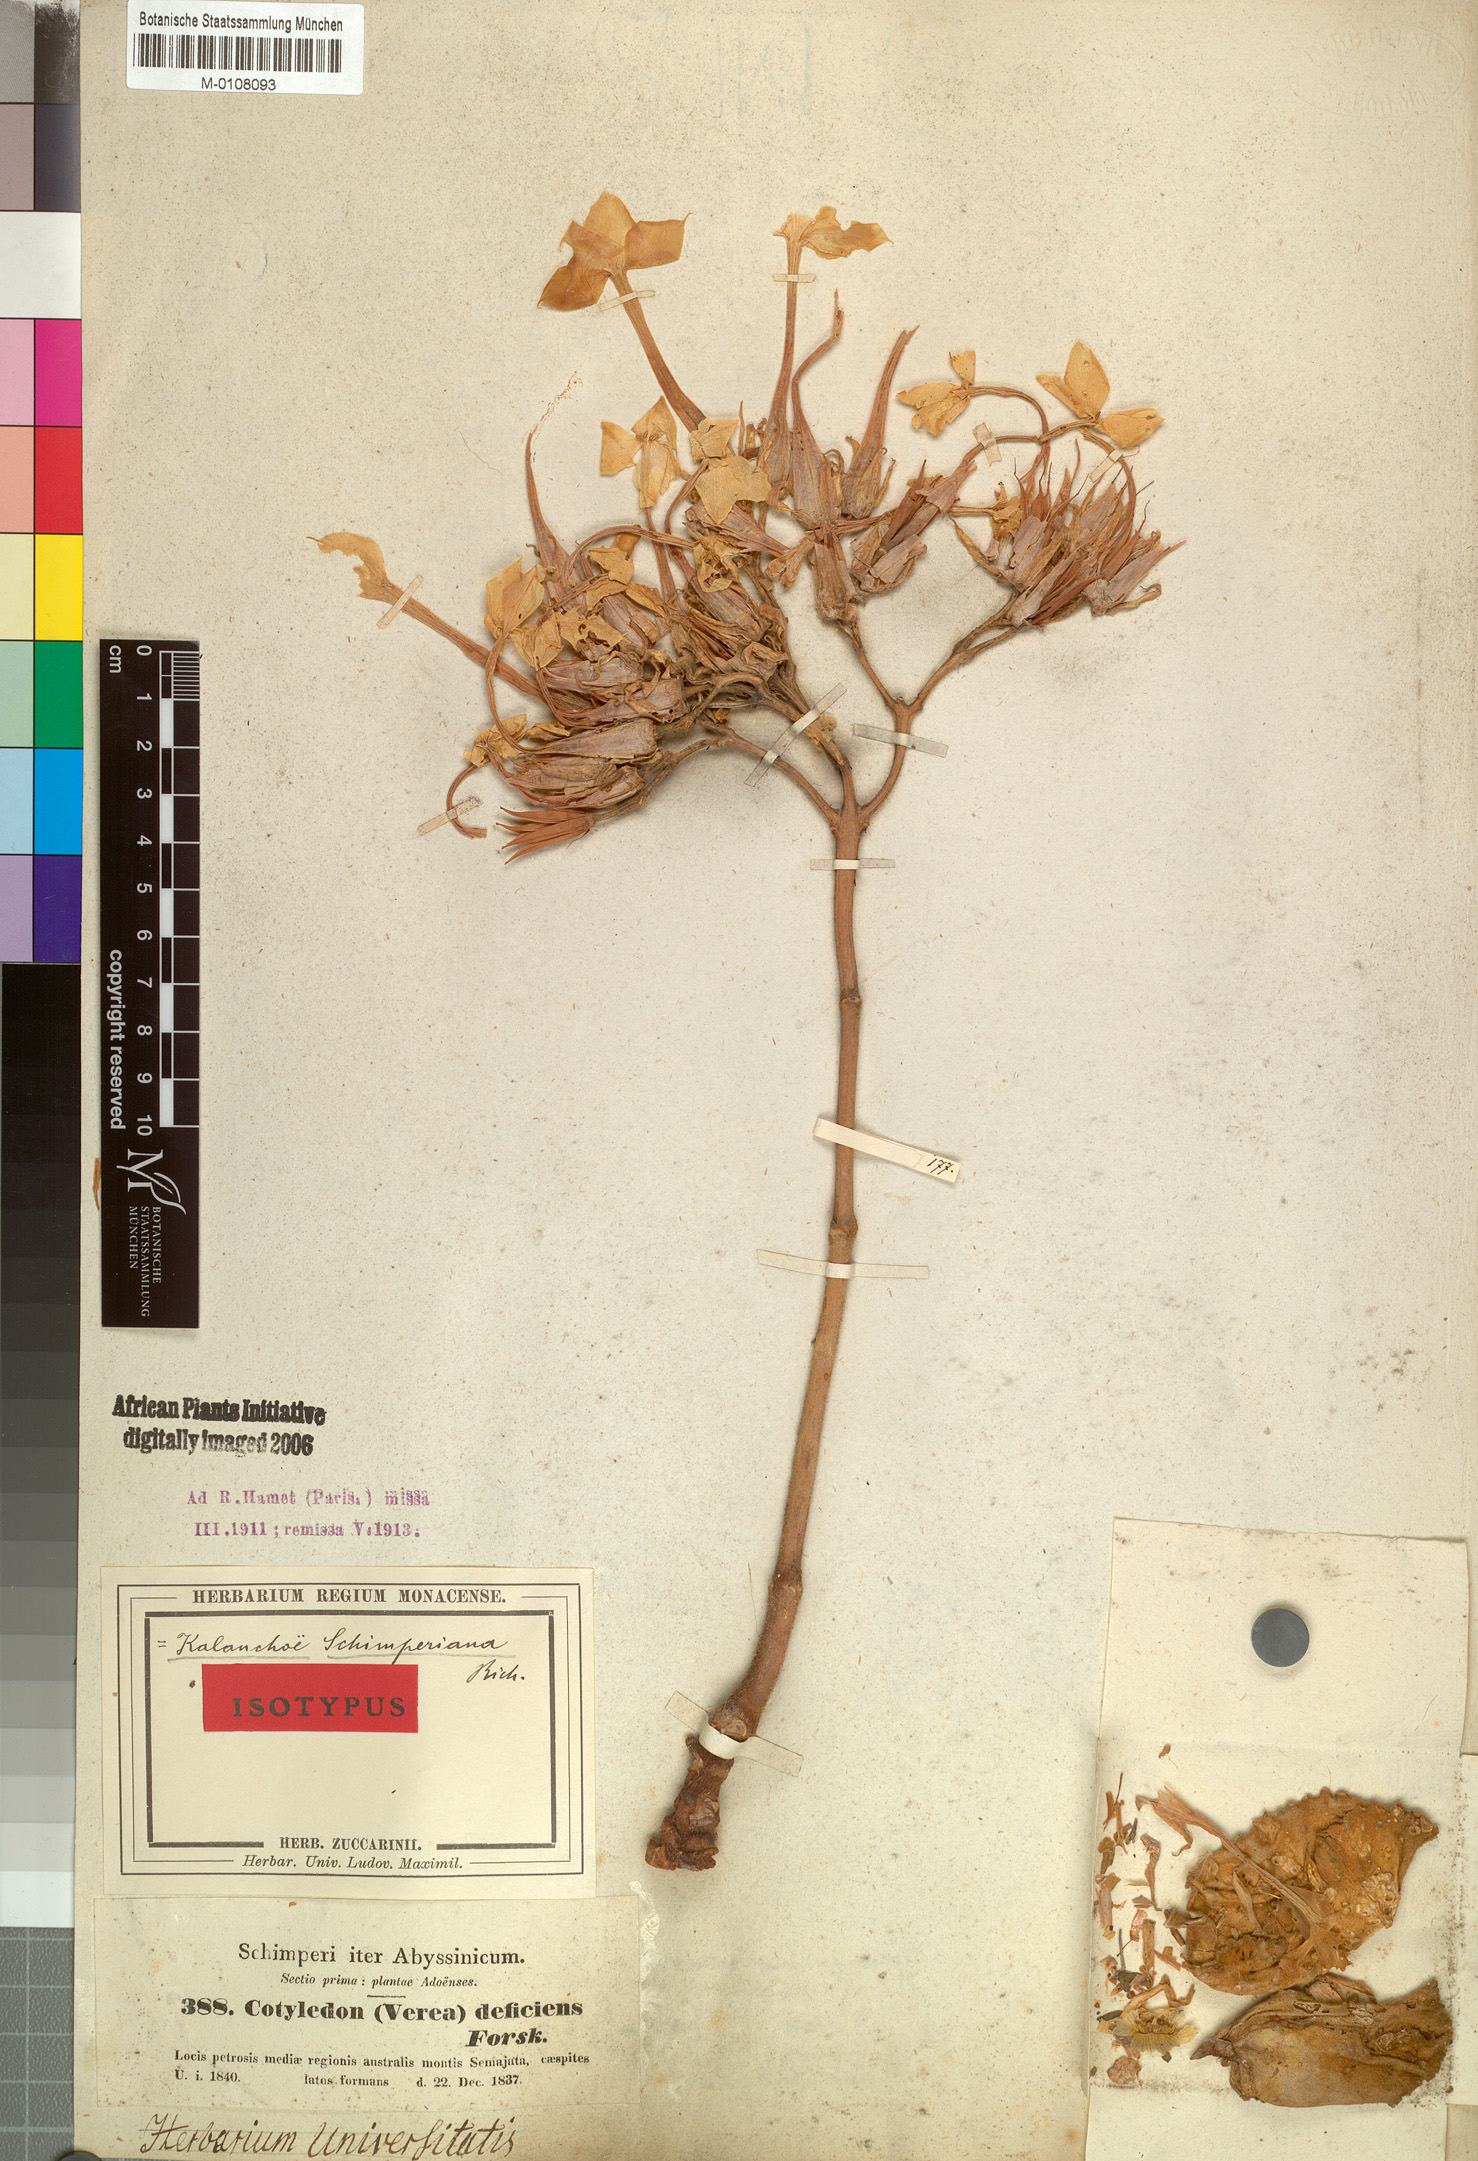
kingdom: Plantae
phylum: Tracheophyta
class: Magnoliopsida
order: Saxifragales
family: Crassulaceae
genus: Kalanchoe
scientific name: Kalanchoe schimperiana
